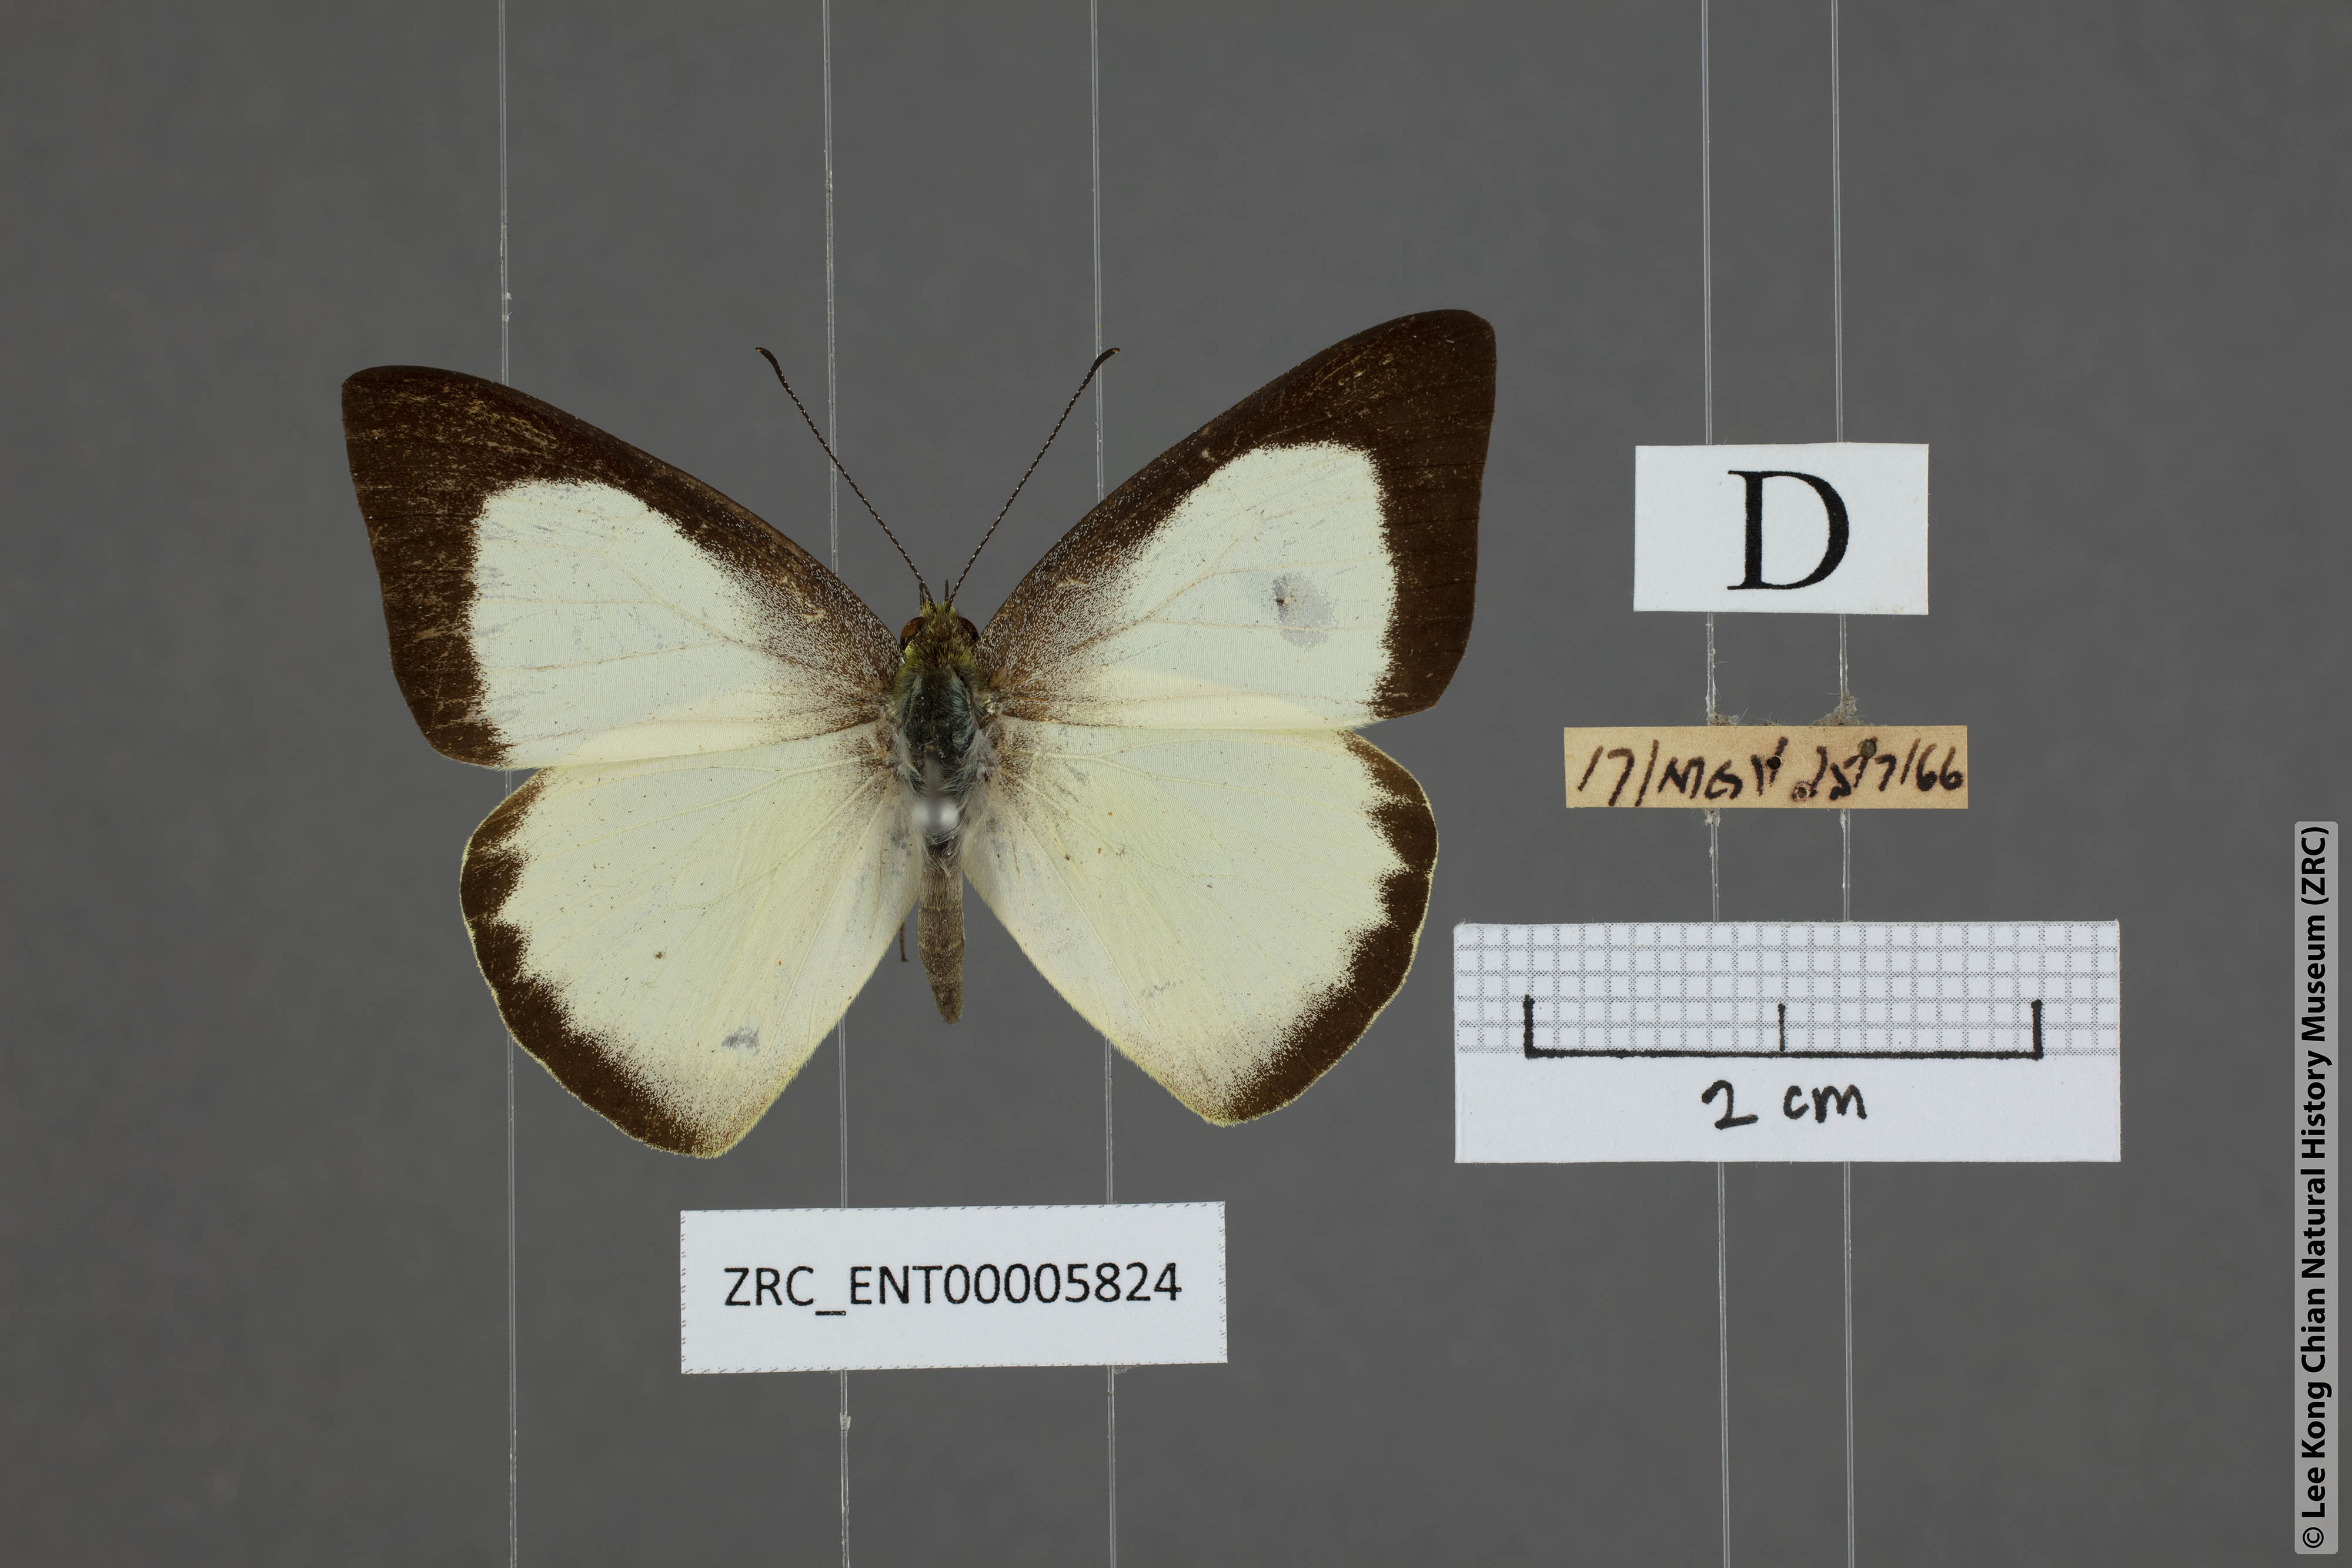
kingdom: Animalia
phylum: Arthropoda
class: Insecta
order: Lepidoptera
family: Pieridae
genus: Saletara
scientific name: Saletara liberia
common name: Pointed albatross
